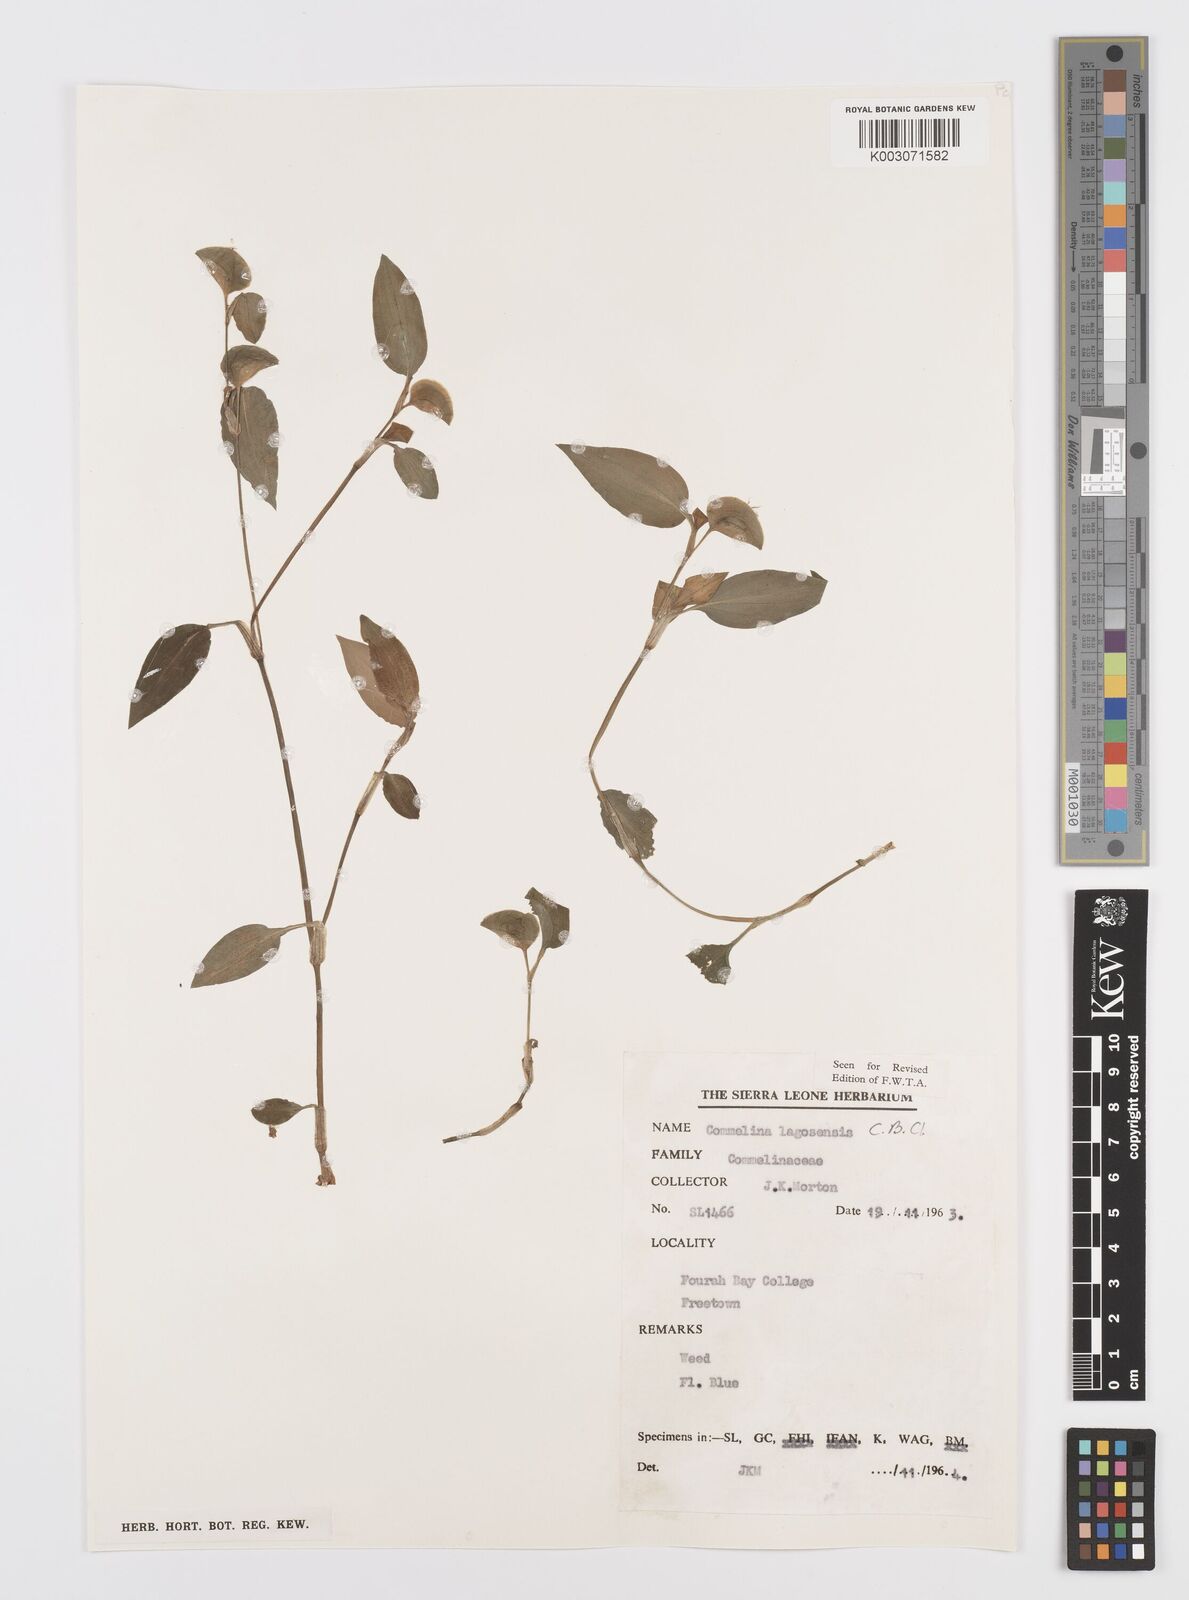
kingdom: Plantae
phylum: Tracheophyta
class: Liliopsida
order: Commelinales
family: Commelinaceae
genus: Commelina
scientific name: Commelina bracteosa
